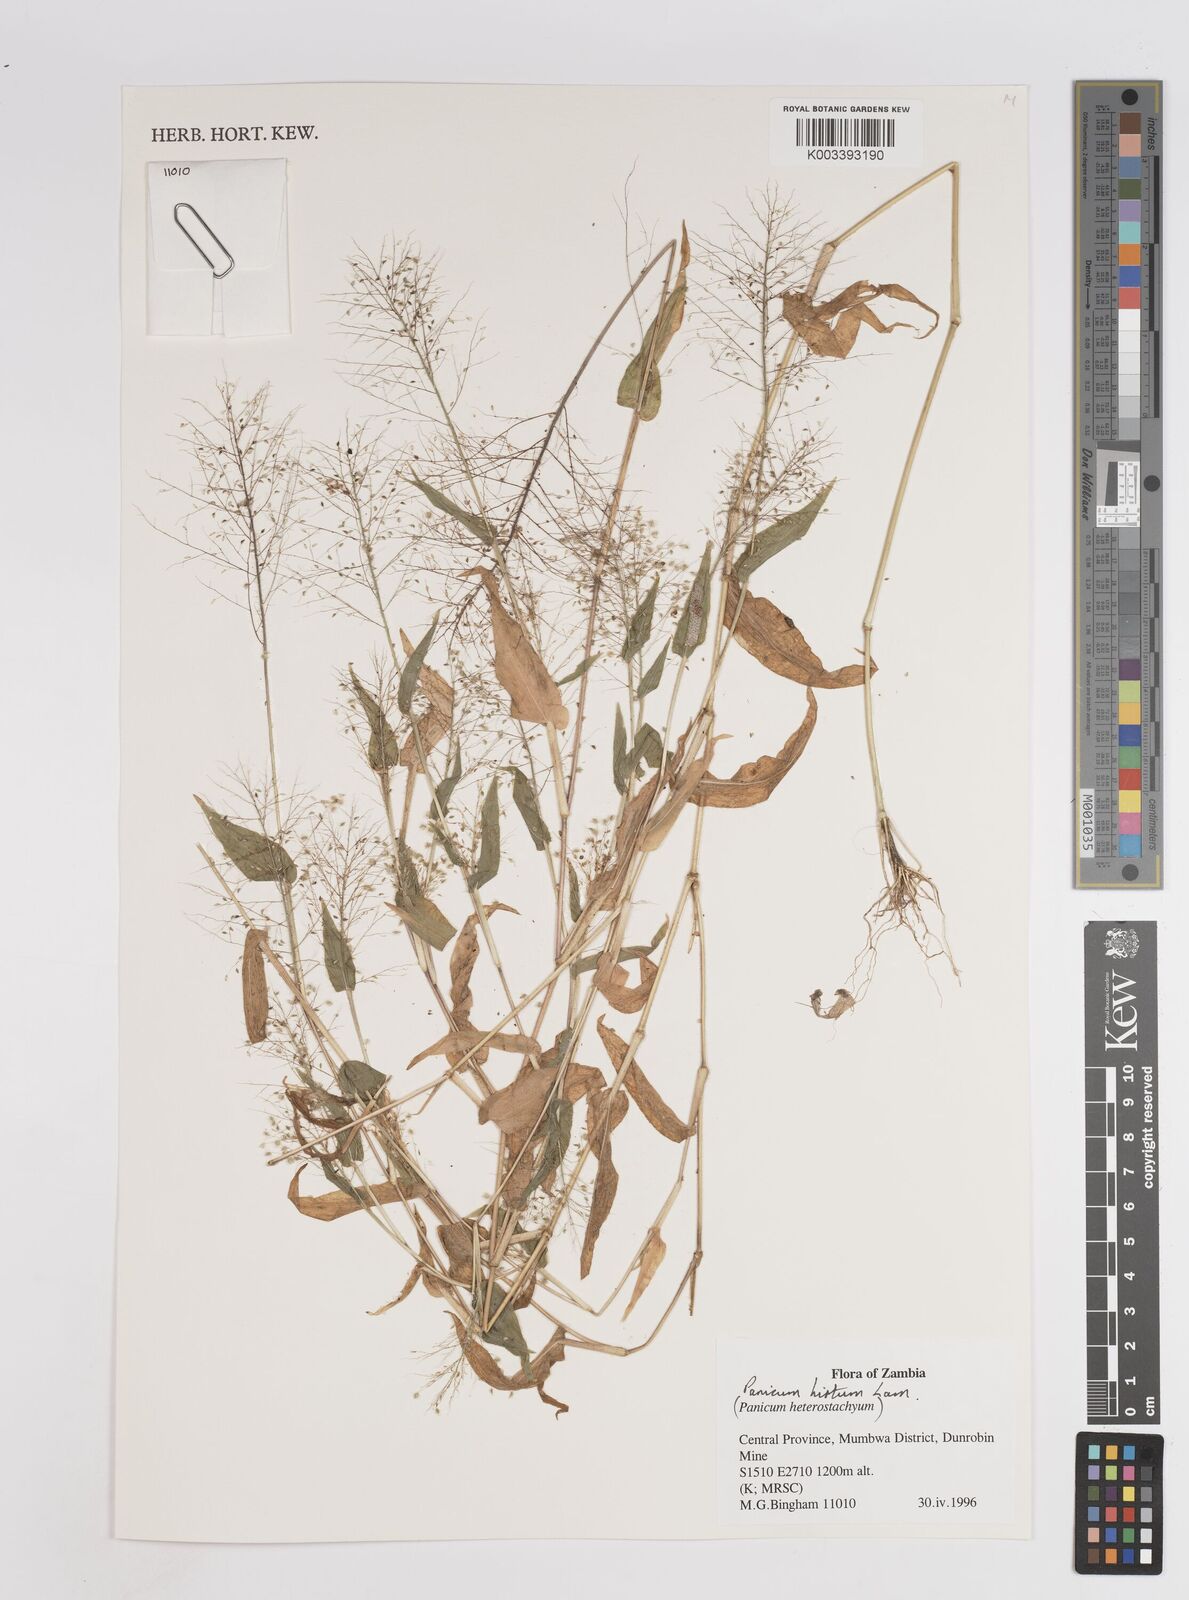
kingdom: Plantae
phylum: Tracheophyta
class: Liliopsida
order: Poales
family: Poaceae
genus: Panicum
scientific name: Panicum hirtum
